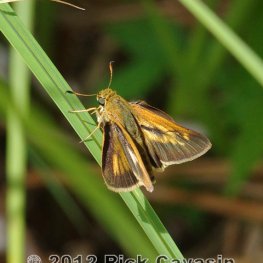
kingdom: Animalia
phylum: Arthropoda
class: Insecta
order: Lepidoptera
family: Hesperiidae
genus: Euphyes
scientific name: Euphyes dion
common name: Dion Skipper
